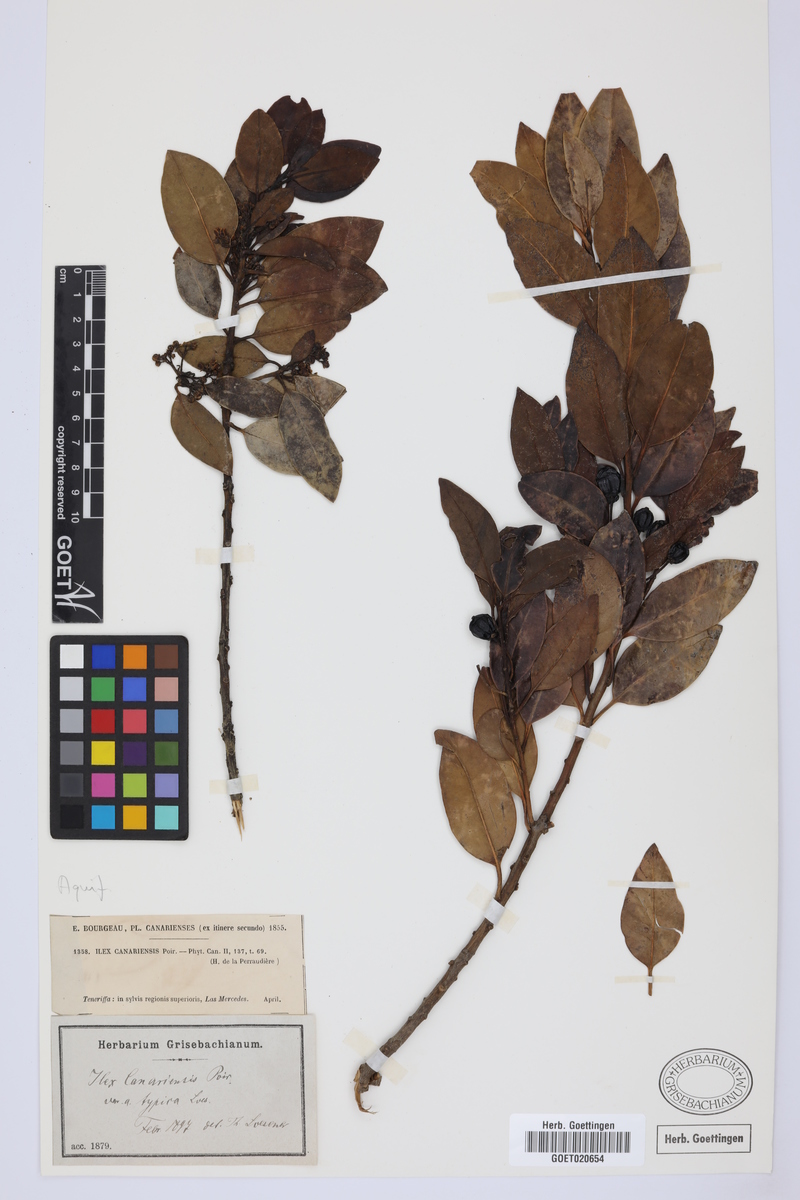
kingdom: Plantae
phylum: Tracheophyta
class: Magnoliopsida
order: Aquifoliales
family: Aquifoliaceae
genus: Ilex
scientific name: Ilex canariensis
